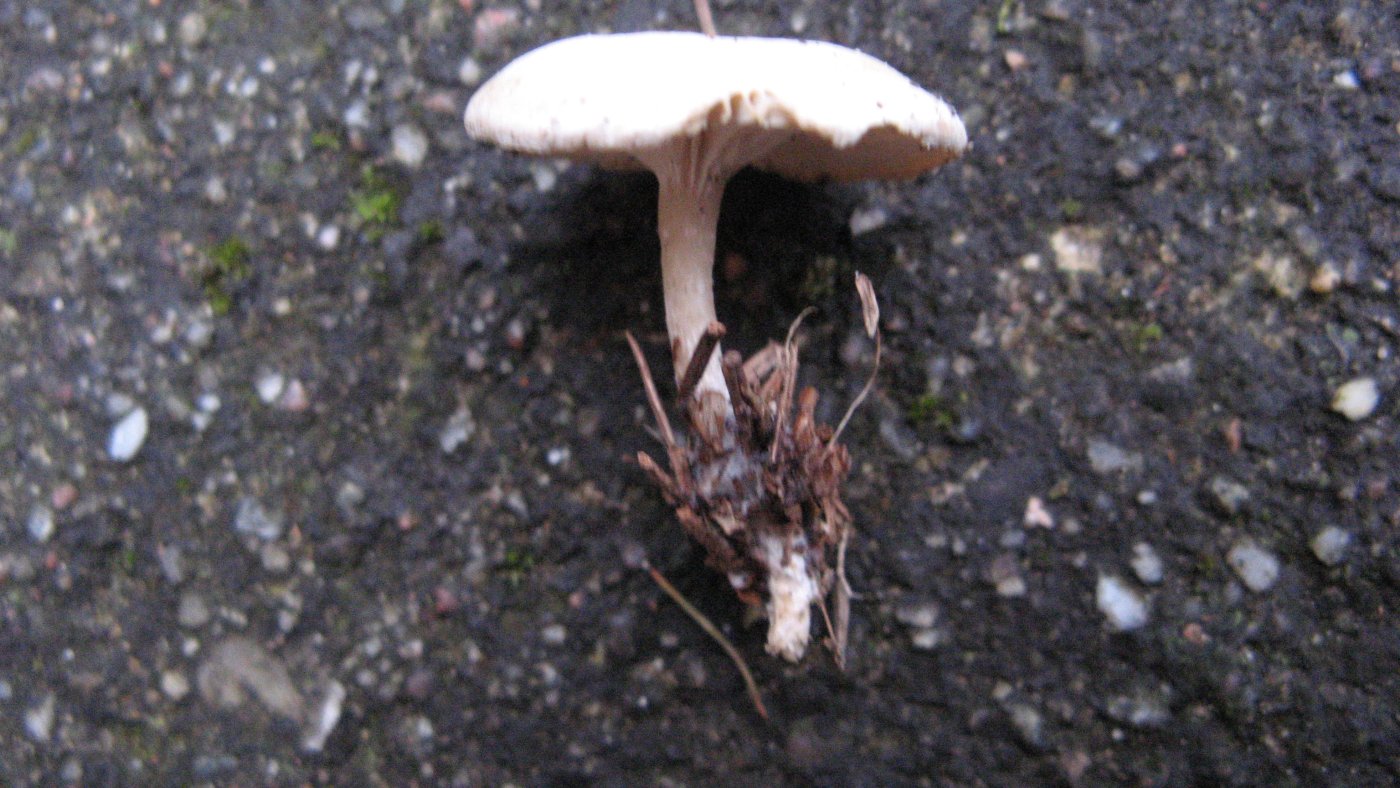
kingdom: Fungi
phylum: Basidiomycota
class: Agaricomycetes
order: Agaricales
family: Tricholomataceae
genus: Leucocybe
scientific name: Leucocybe candicans
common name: kridt-tragthat
